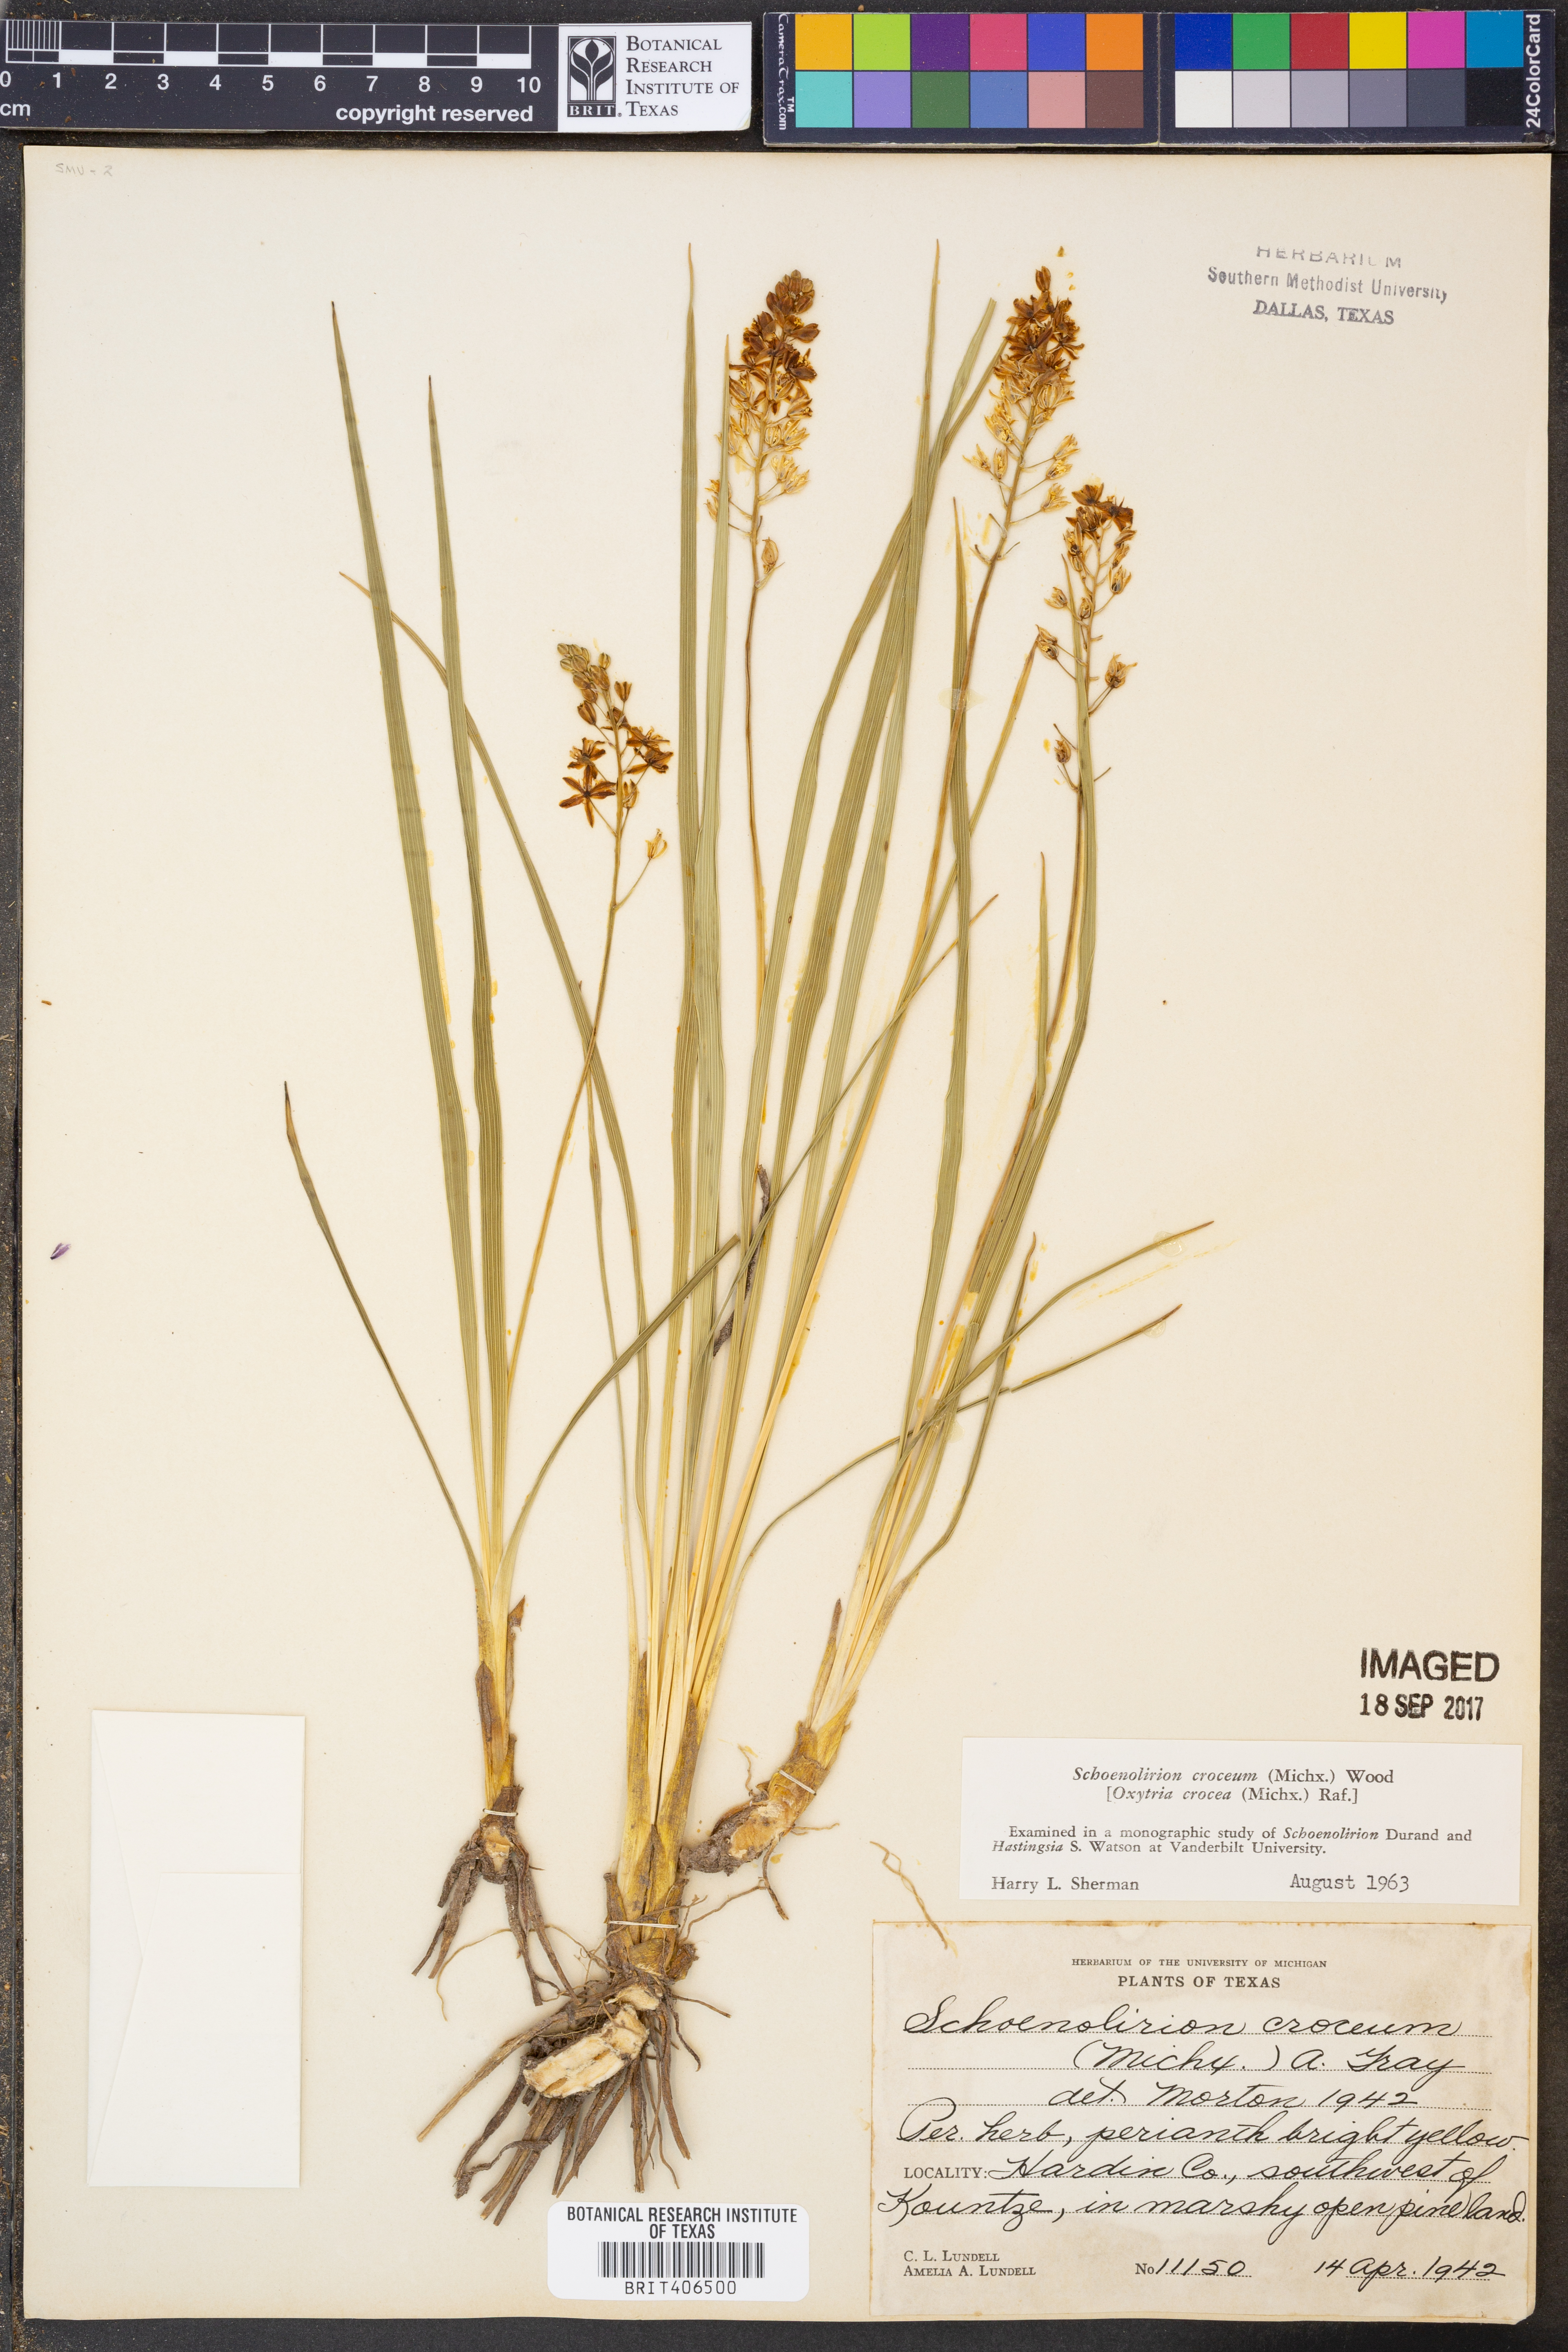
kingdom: Plantae
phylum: Tracheophyta
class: Liliopsida
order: Asparagales
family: Asparagaceae
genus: Schoenolirion
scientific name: Schoenolirion croceum
